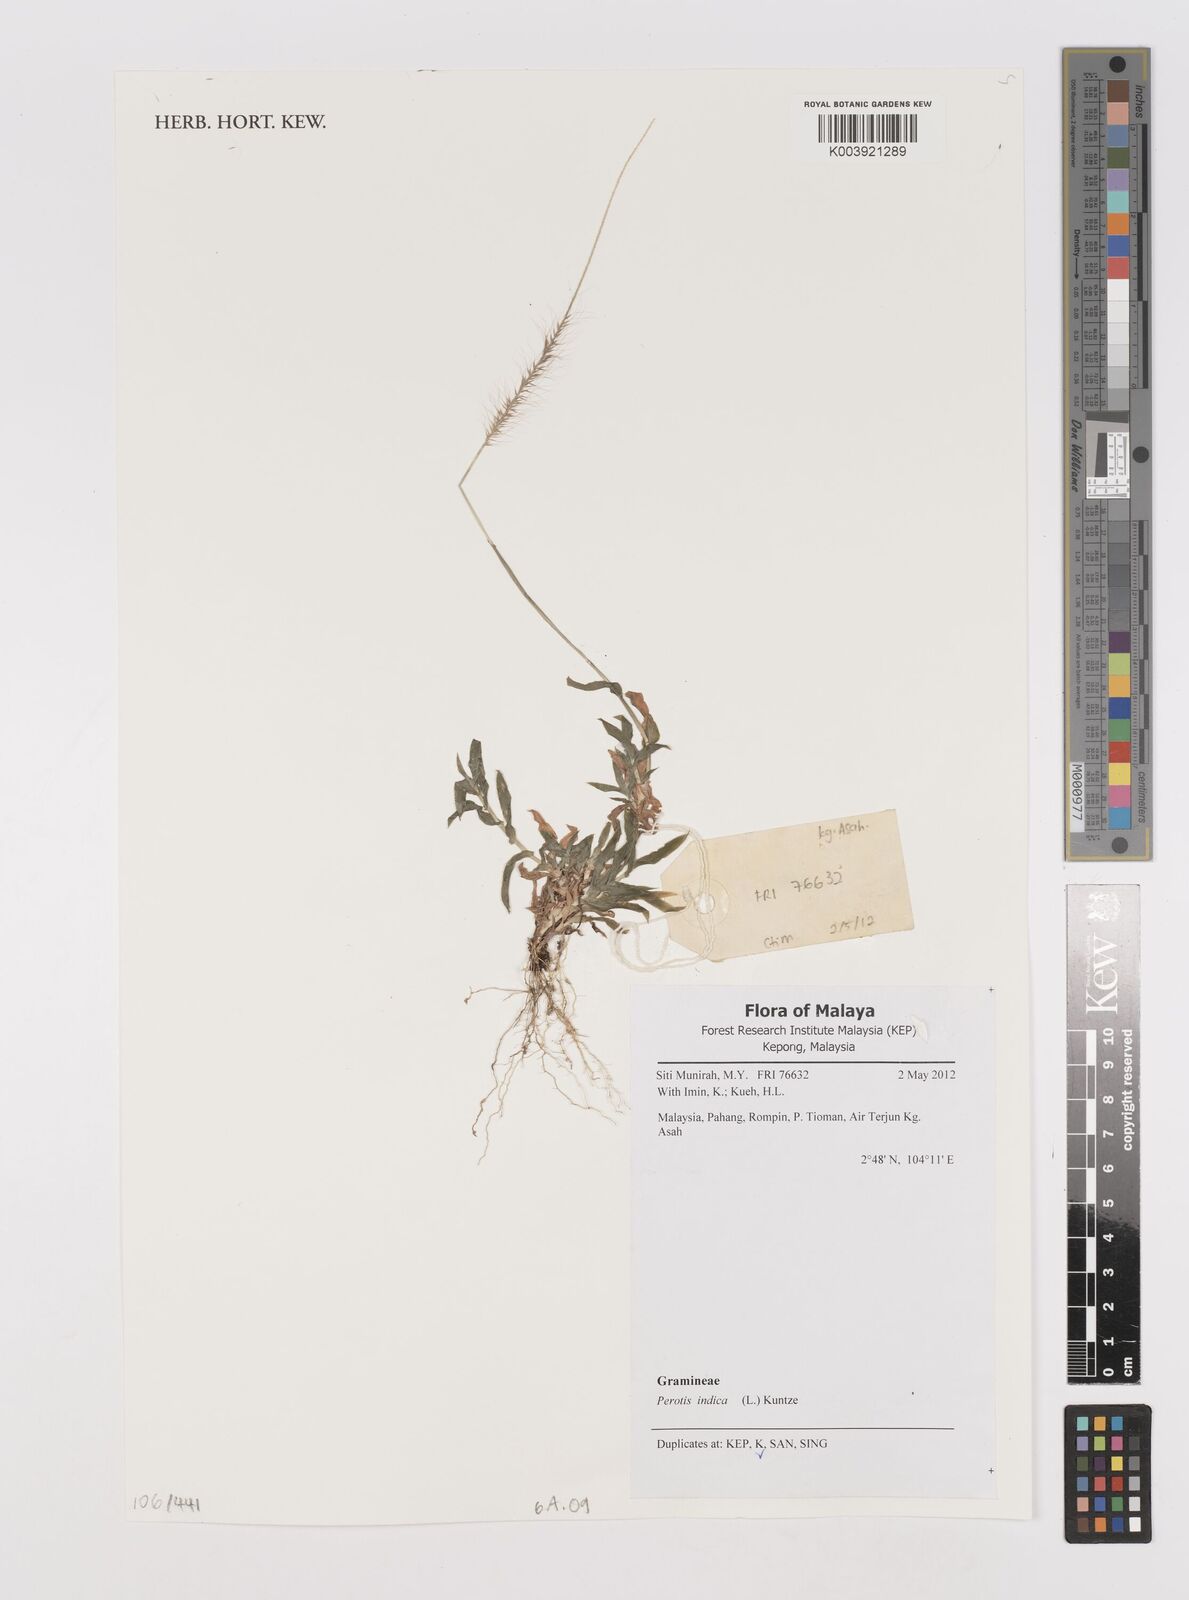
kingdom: Plantae
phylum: Tracheophyta
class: Liliopsida
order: Poales
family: Poaceae
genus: Perotis
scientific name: Perotis indica
